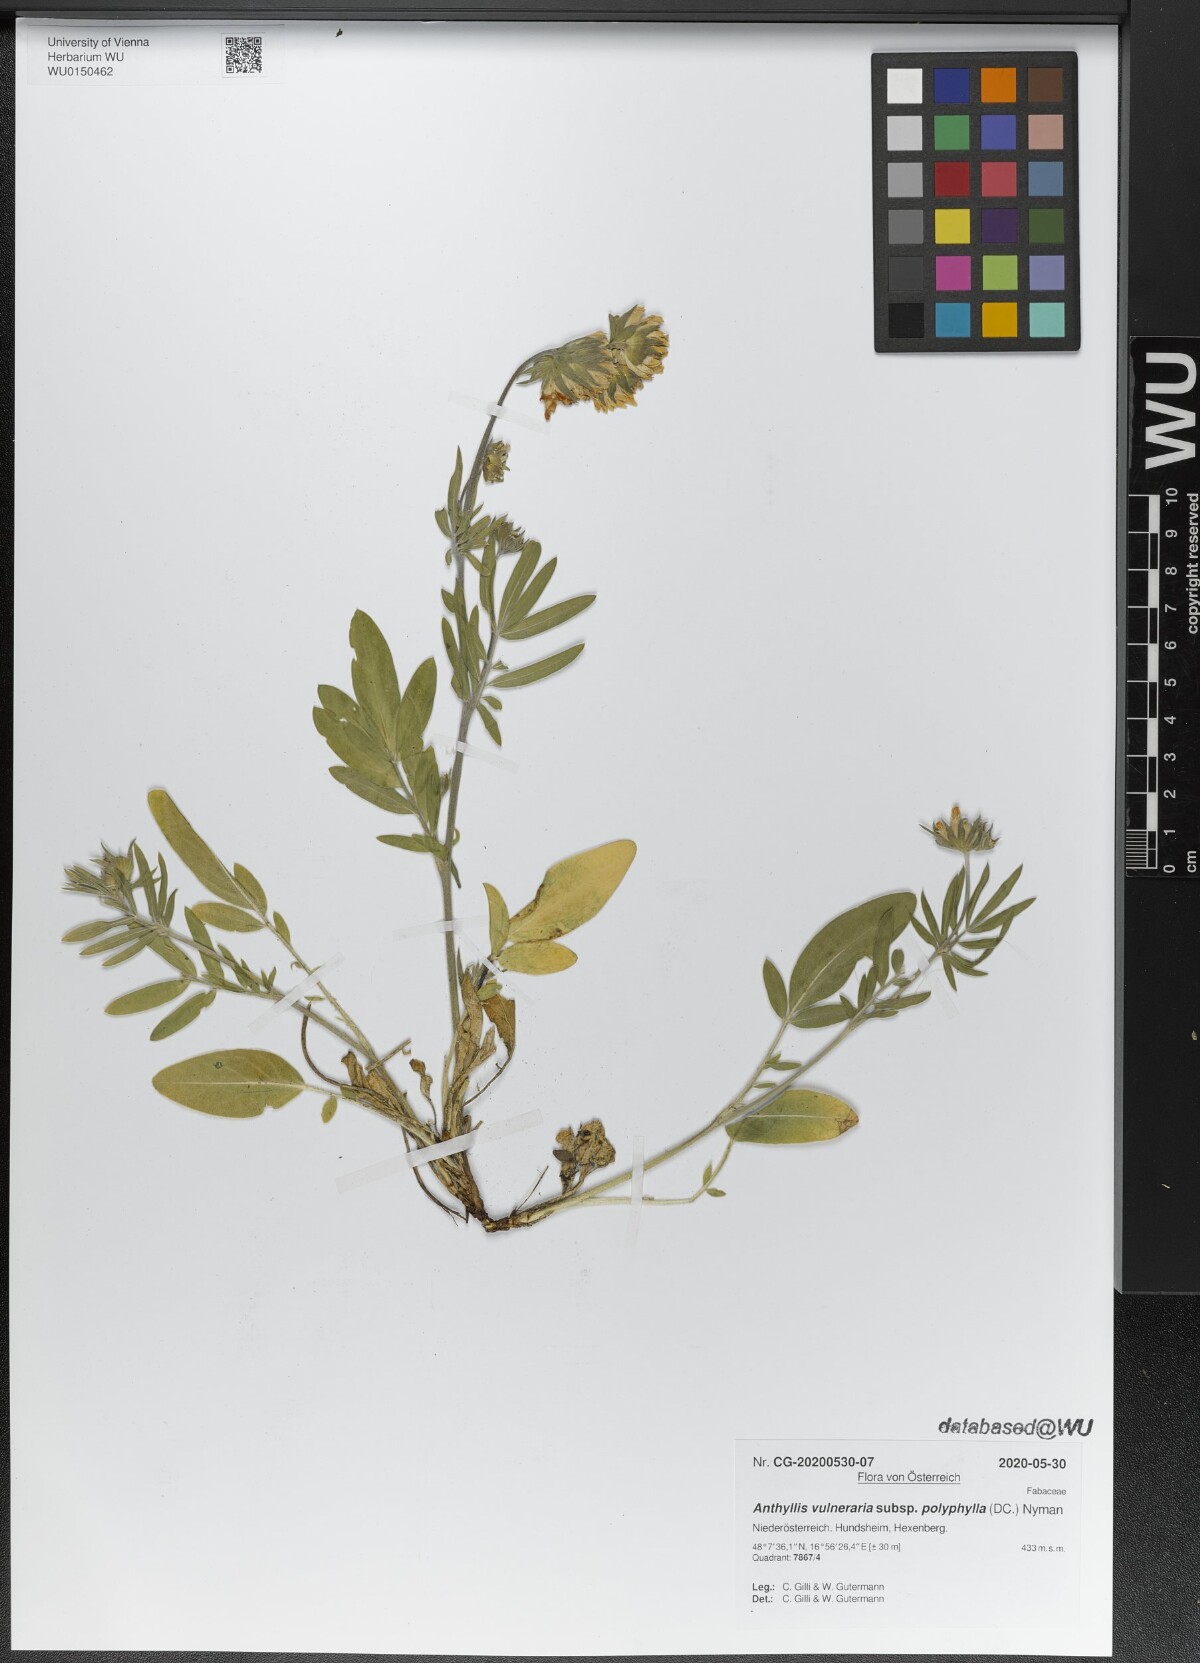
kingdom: Plantae
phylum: Tracheophyta
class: Magnoliopsida
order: Fabales
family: Fabaceae
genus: Anthyllis
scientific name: Anthyllis vulneraria
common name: Kidney vetch
